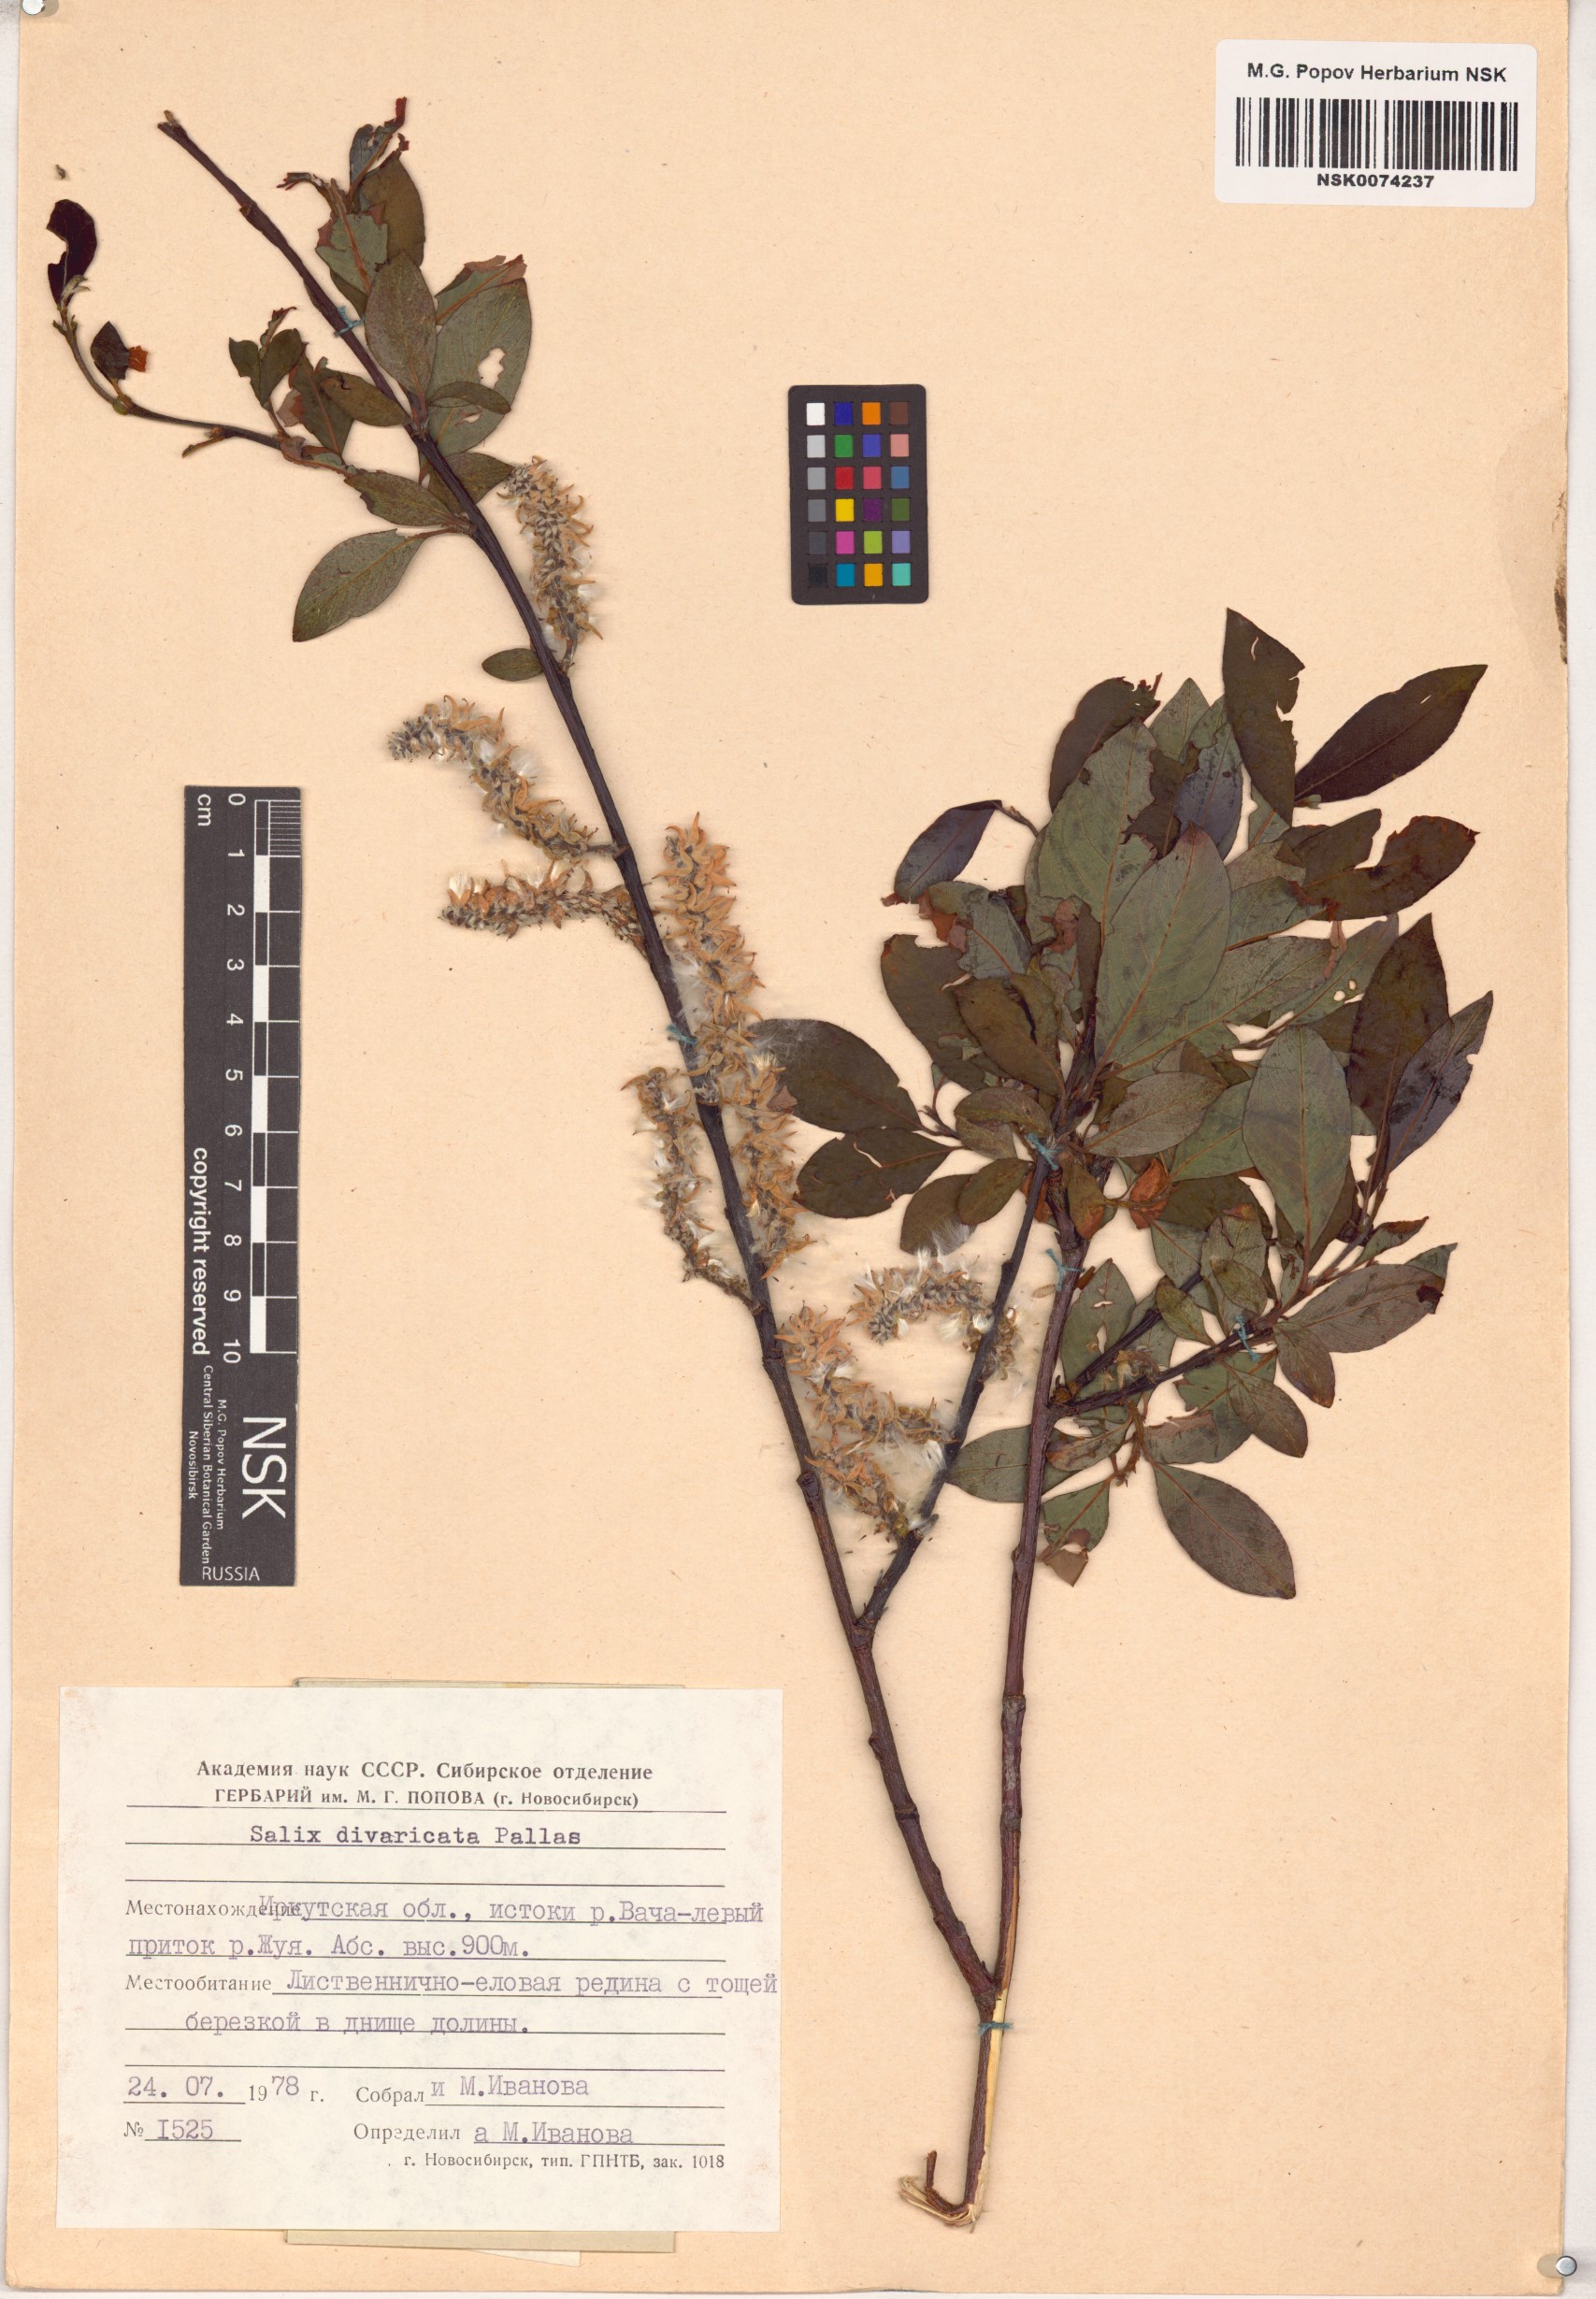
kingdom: Plantae
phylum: Tracheophyta
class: Magnoliopsida
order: Malpighiales
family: Salicaceae
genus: Salix
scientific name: Salix divaricata
